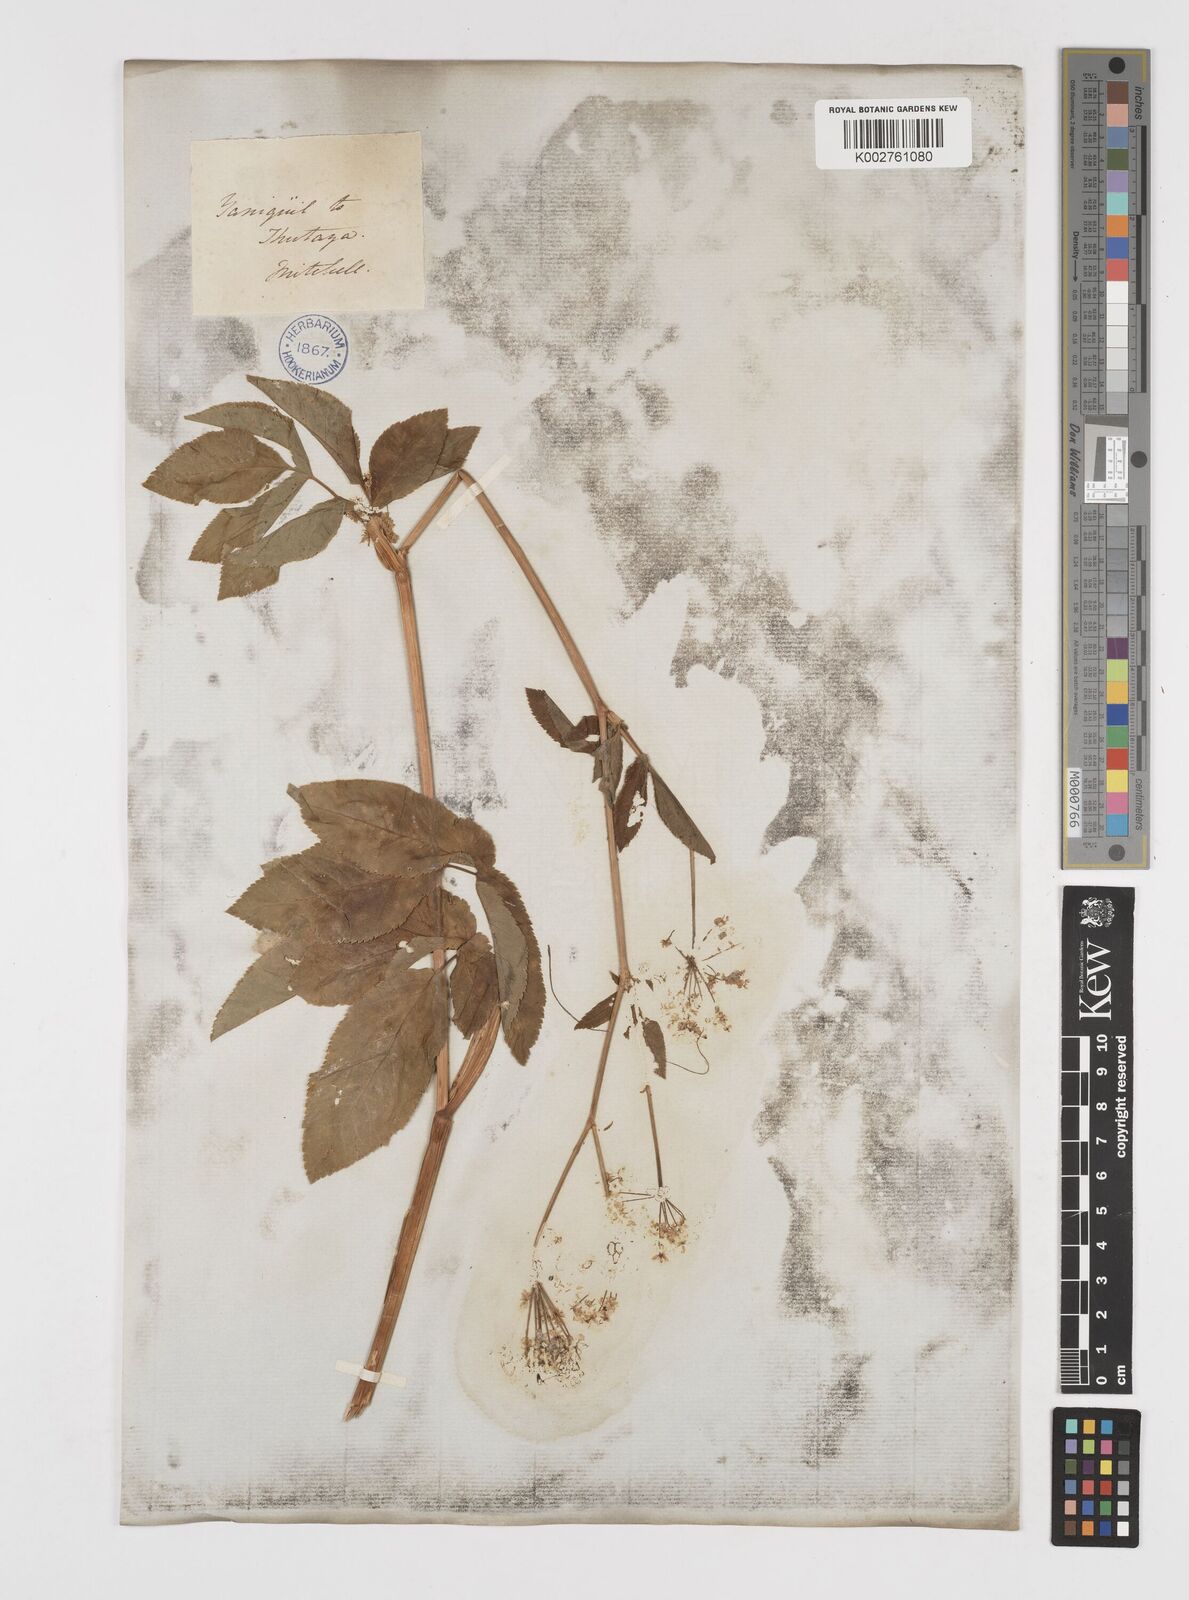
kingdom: Plantae
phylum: Tracheophyta
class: Magnoliopsida
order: Apiales
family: Apiaceae
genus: Chaerophyllum
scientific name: Chaerophyllum aromaticum
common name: Broadleaf chervil
